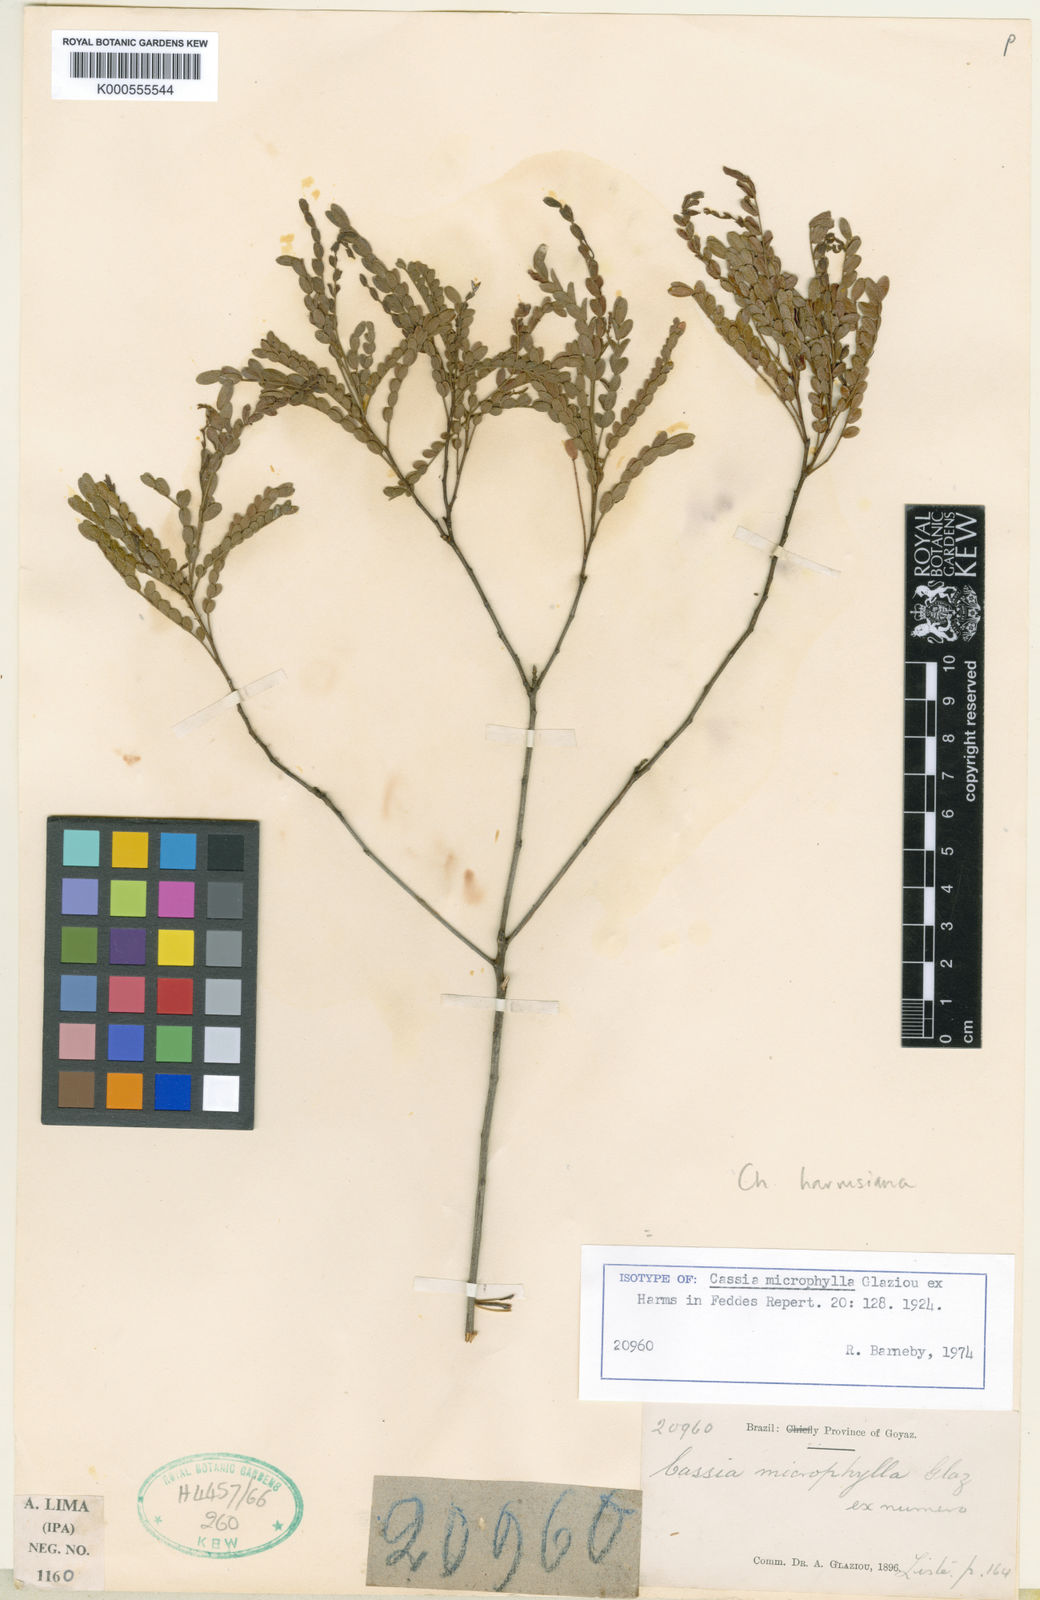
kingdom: Plantae
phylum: Tracheophyta
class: Magnoliopsida
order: Fabales
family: Fabaceae
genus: Chamaecrista
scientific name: Chamaecrista harmsiana
